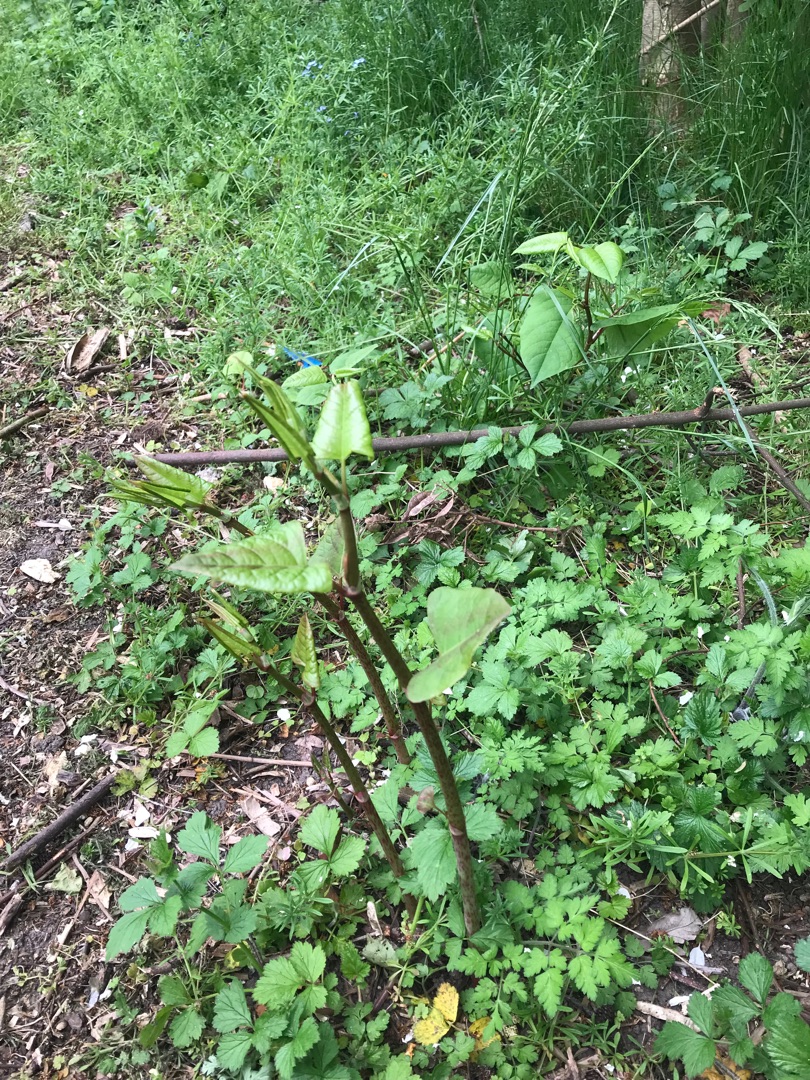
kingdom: Plantae
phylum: Tracheophyta
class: Magnoliopsida
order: Caryophyllales
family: Polygonaceae
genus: Reynoutria
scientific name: Reynoutria japonica
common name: Japan-pileurt
